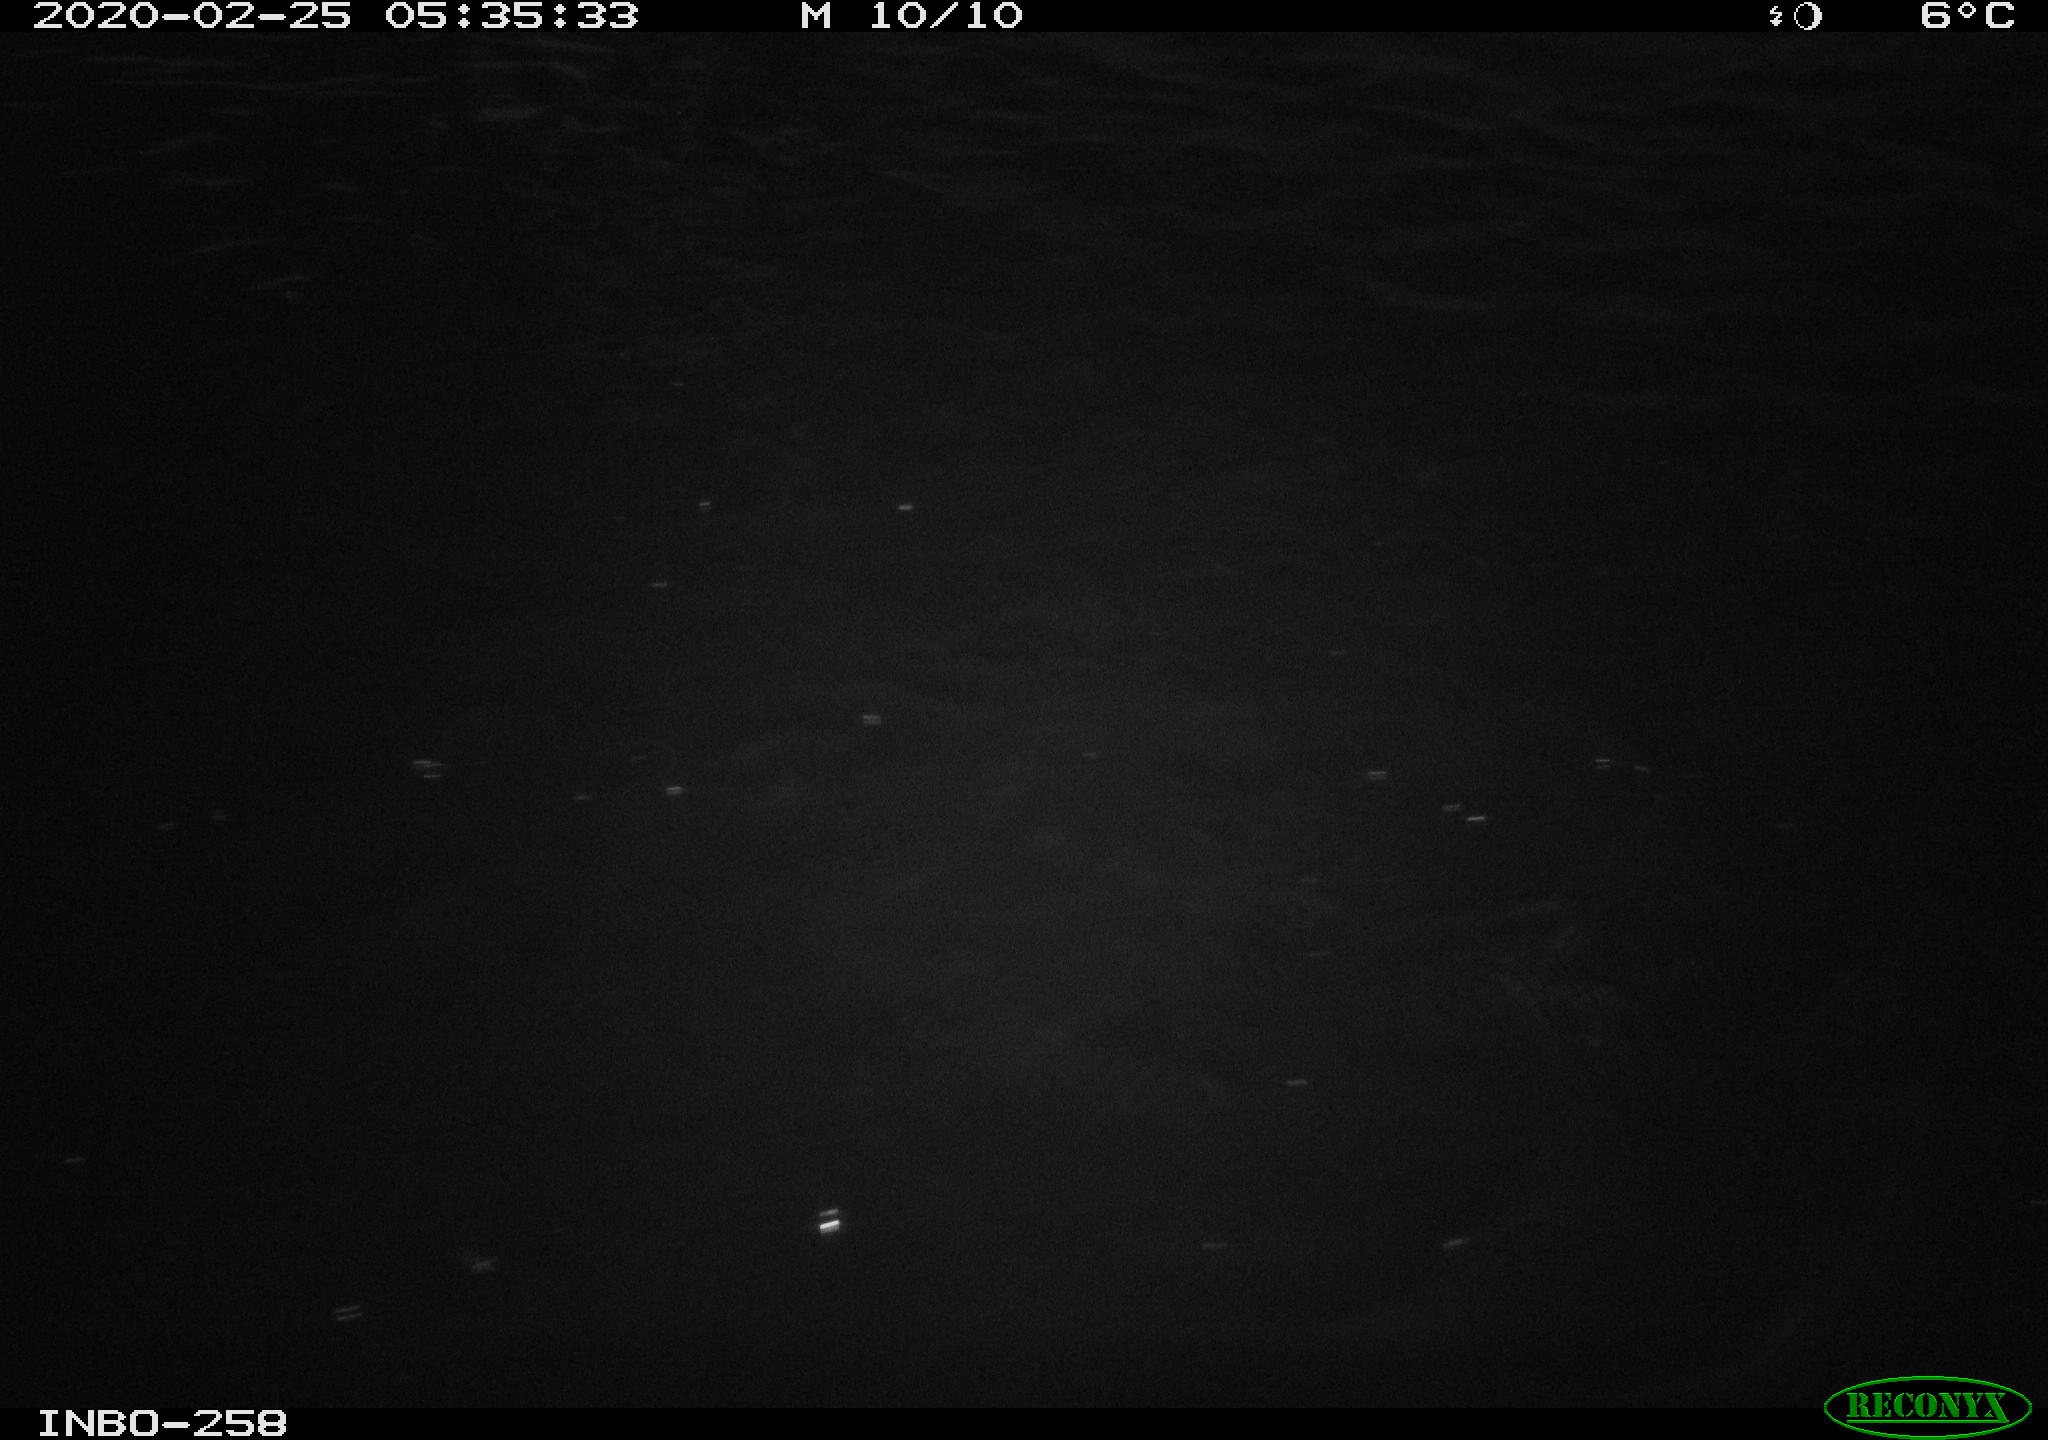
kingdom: Animalia
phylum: Chordata
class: Aves
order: Anseriformes
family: Anatidae
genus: Anas
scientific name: Anas platyrhynchos
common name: Mallard
